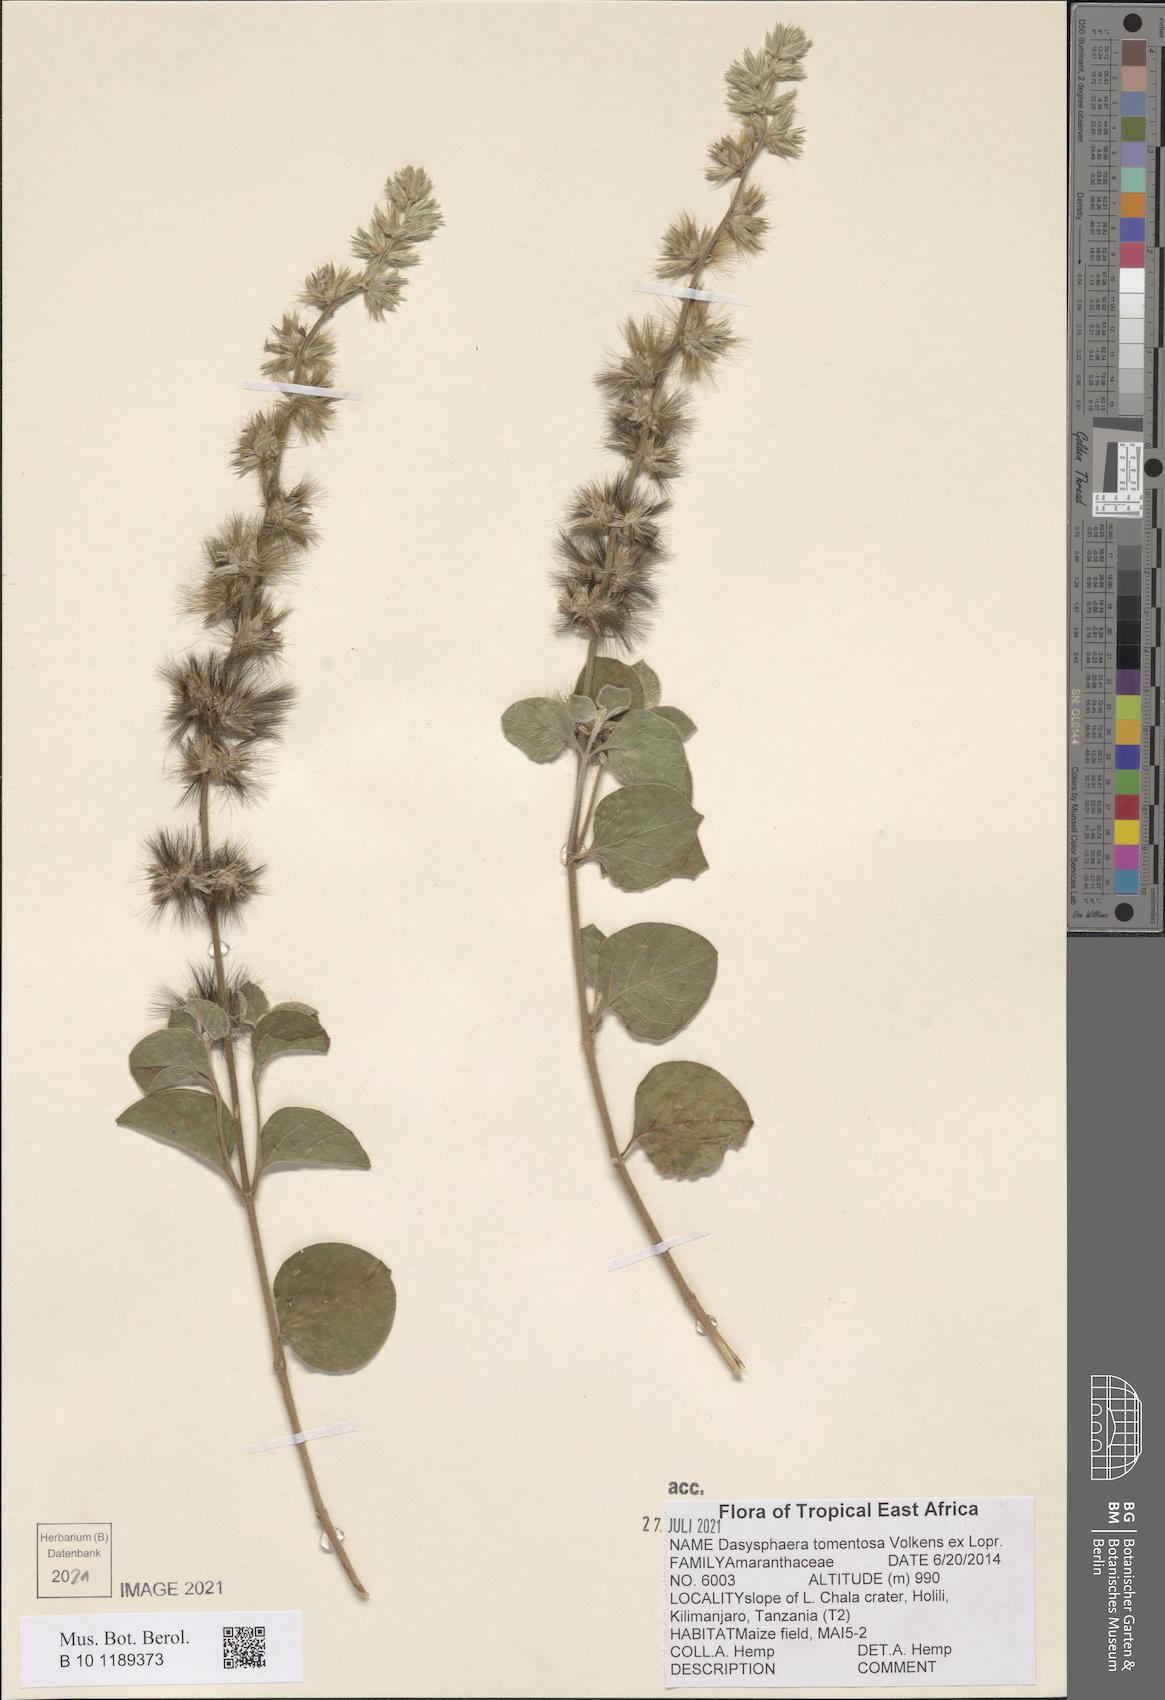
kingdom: Plantae
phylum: Tracheophyta
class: Magnoliopsida
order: Caryophyllales
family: Amaranthaceae
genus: Dasysphaera
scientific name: Dasysphaera tomentosa
